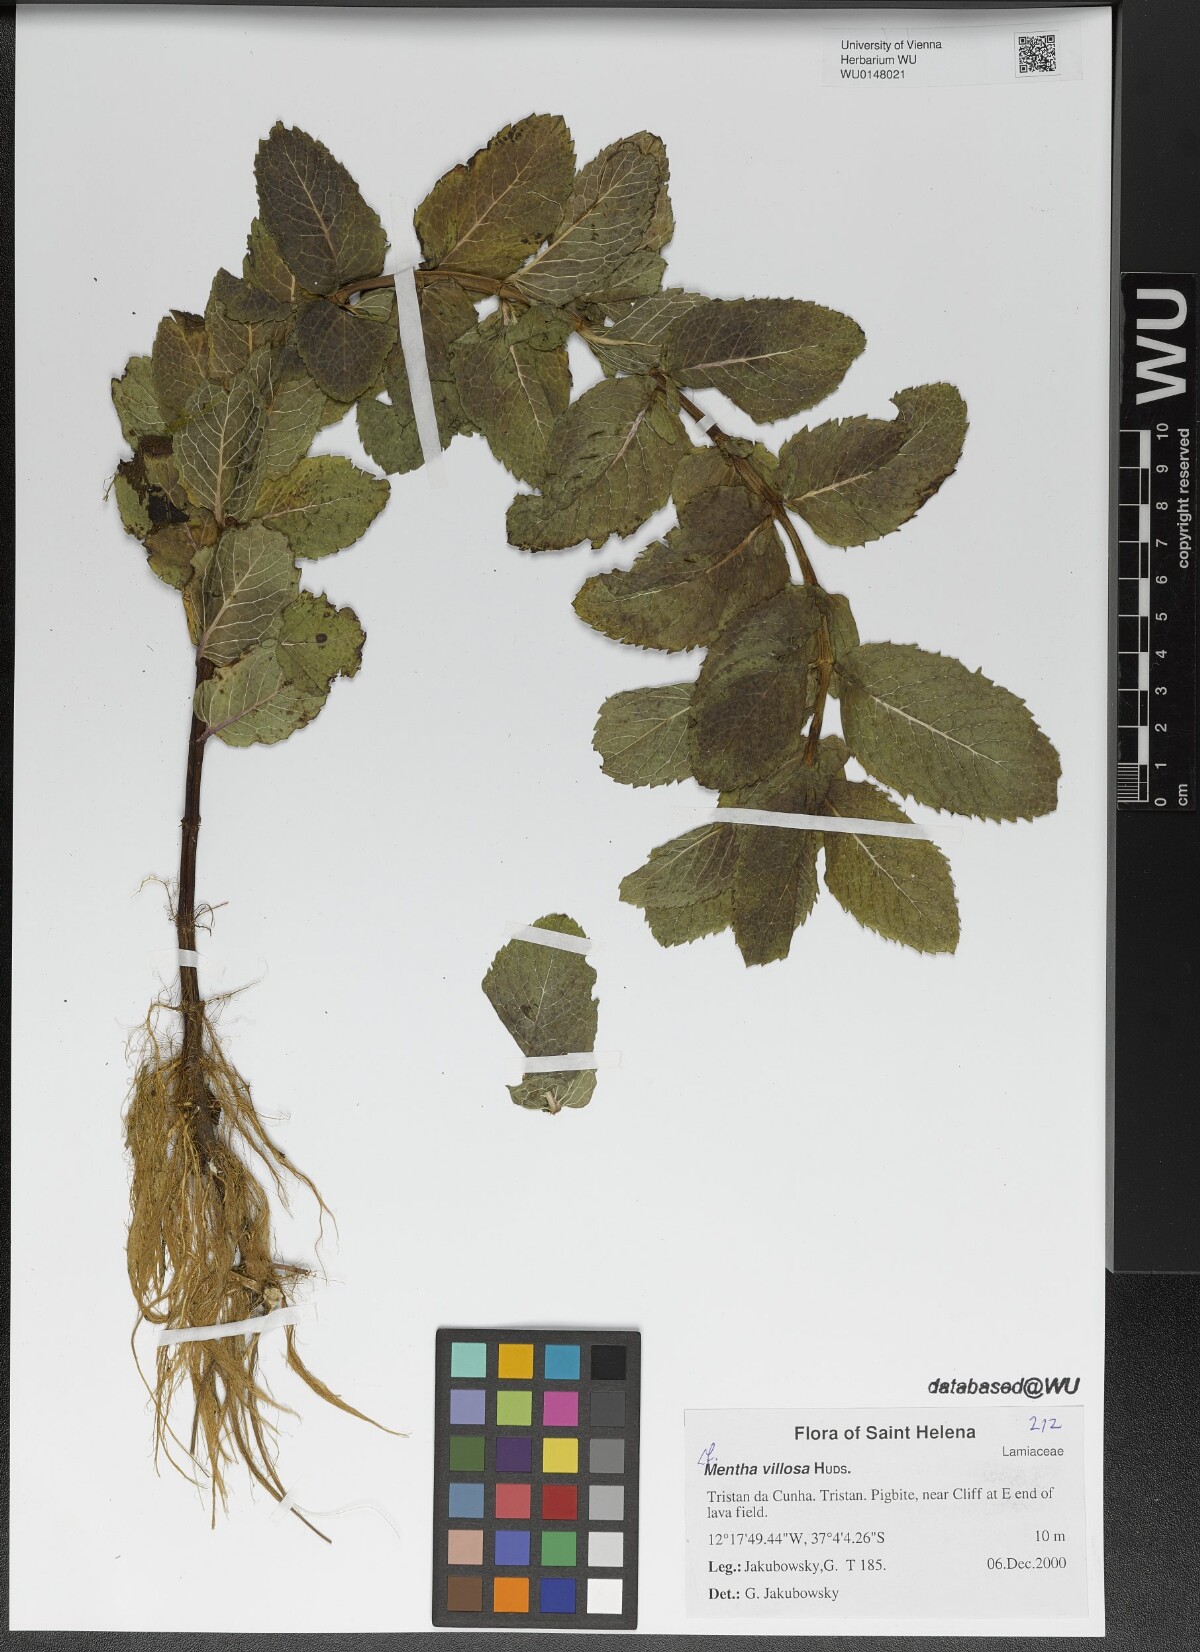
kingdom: Plantae
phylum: Tracheophyta
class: Magnoliopsida
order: Lamiales
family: Lamiaceae
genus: Mentha
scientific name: Mentha villosa
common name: Apple mint
